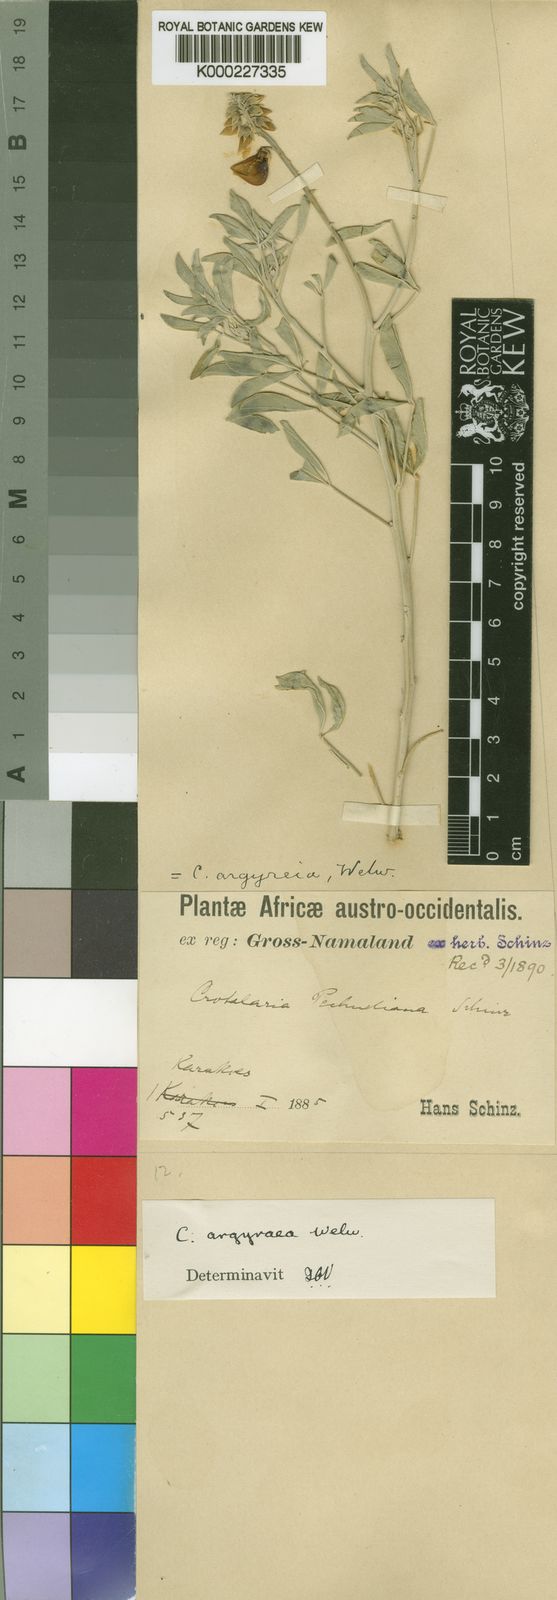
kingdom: Plantae
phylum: Tracheophyta
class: Magnoliopsida
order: Fabales
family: Fabaceae
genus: Crotalaria
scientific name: Crotalaria argyraea
